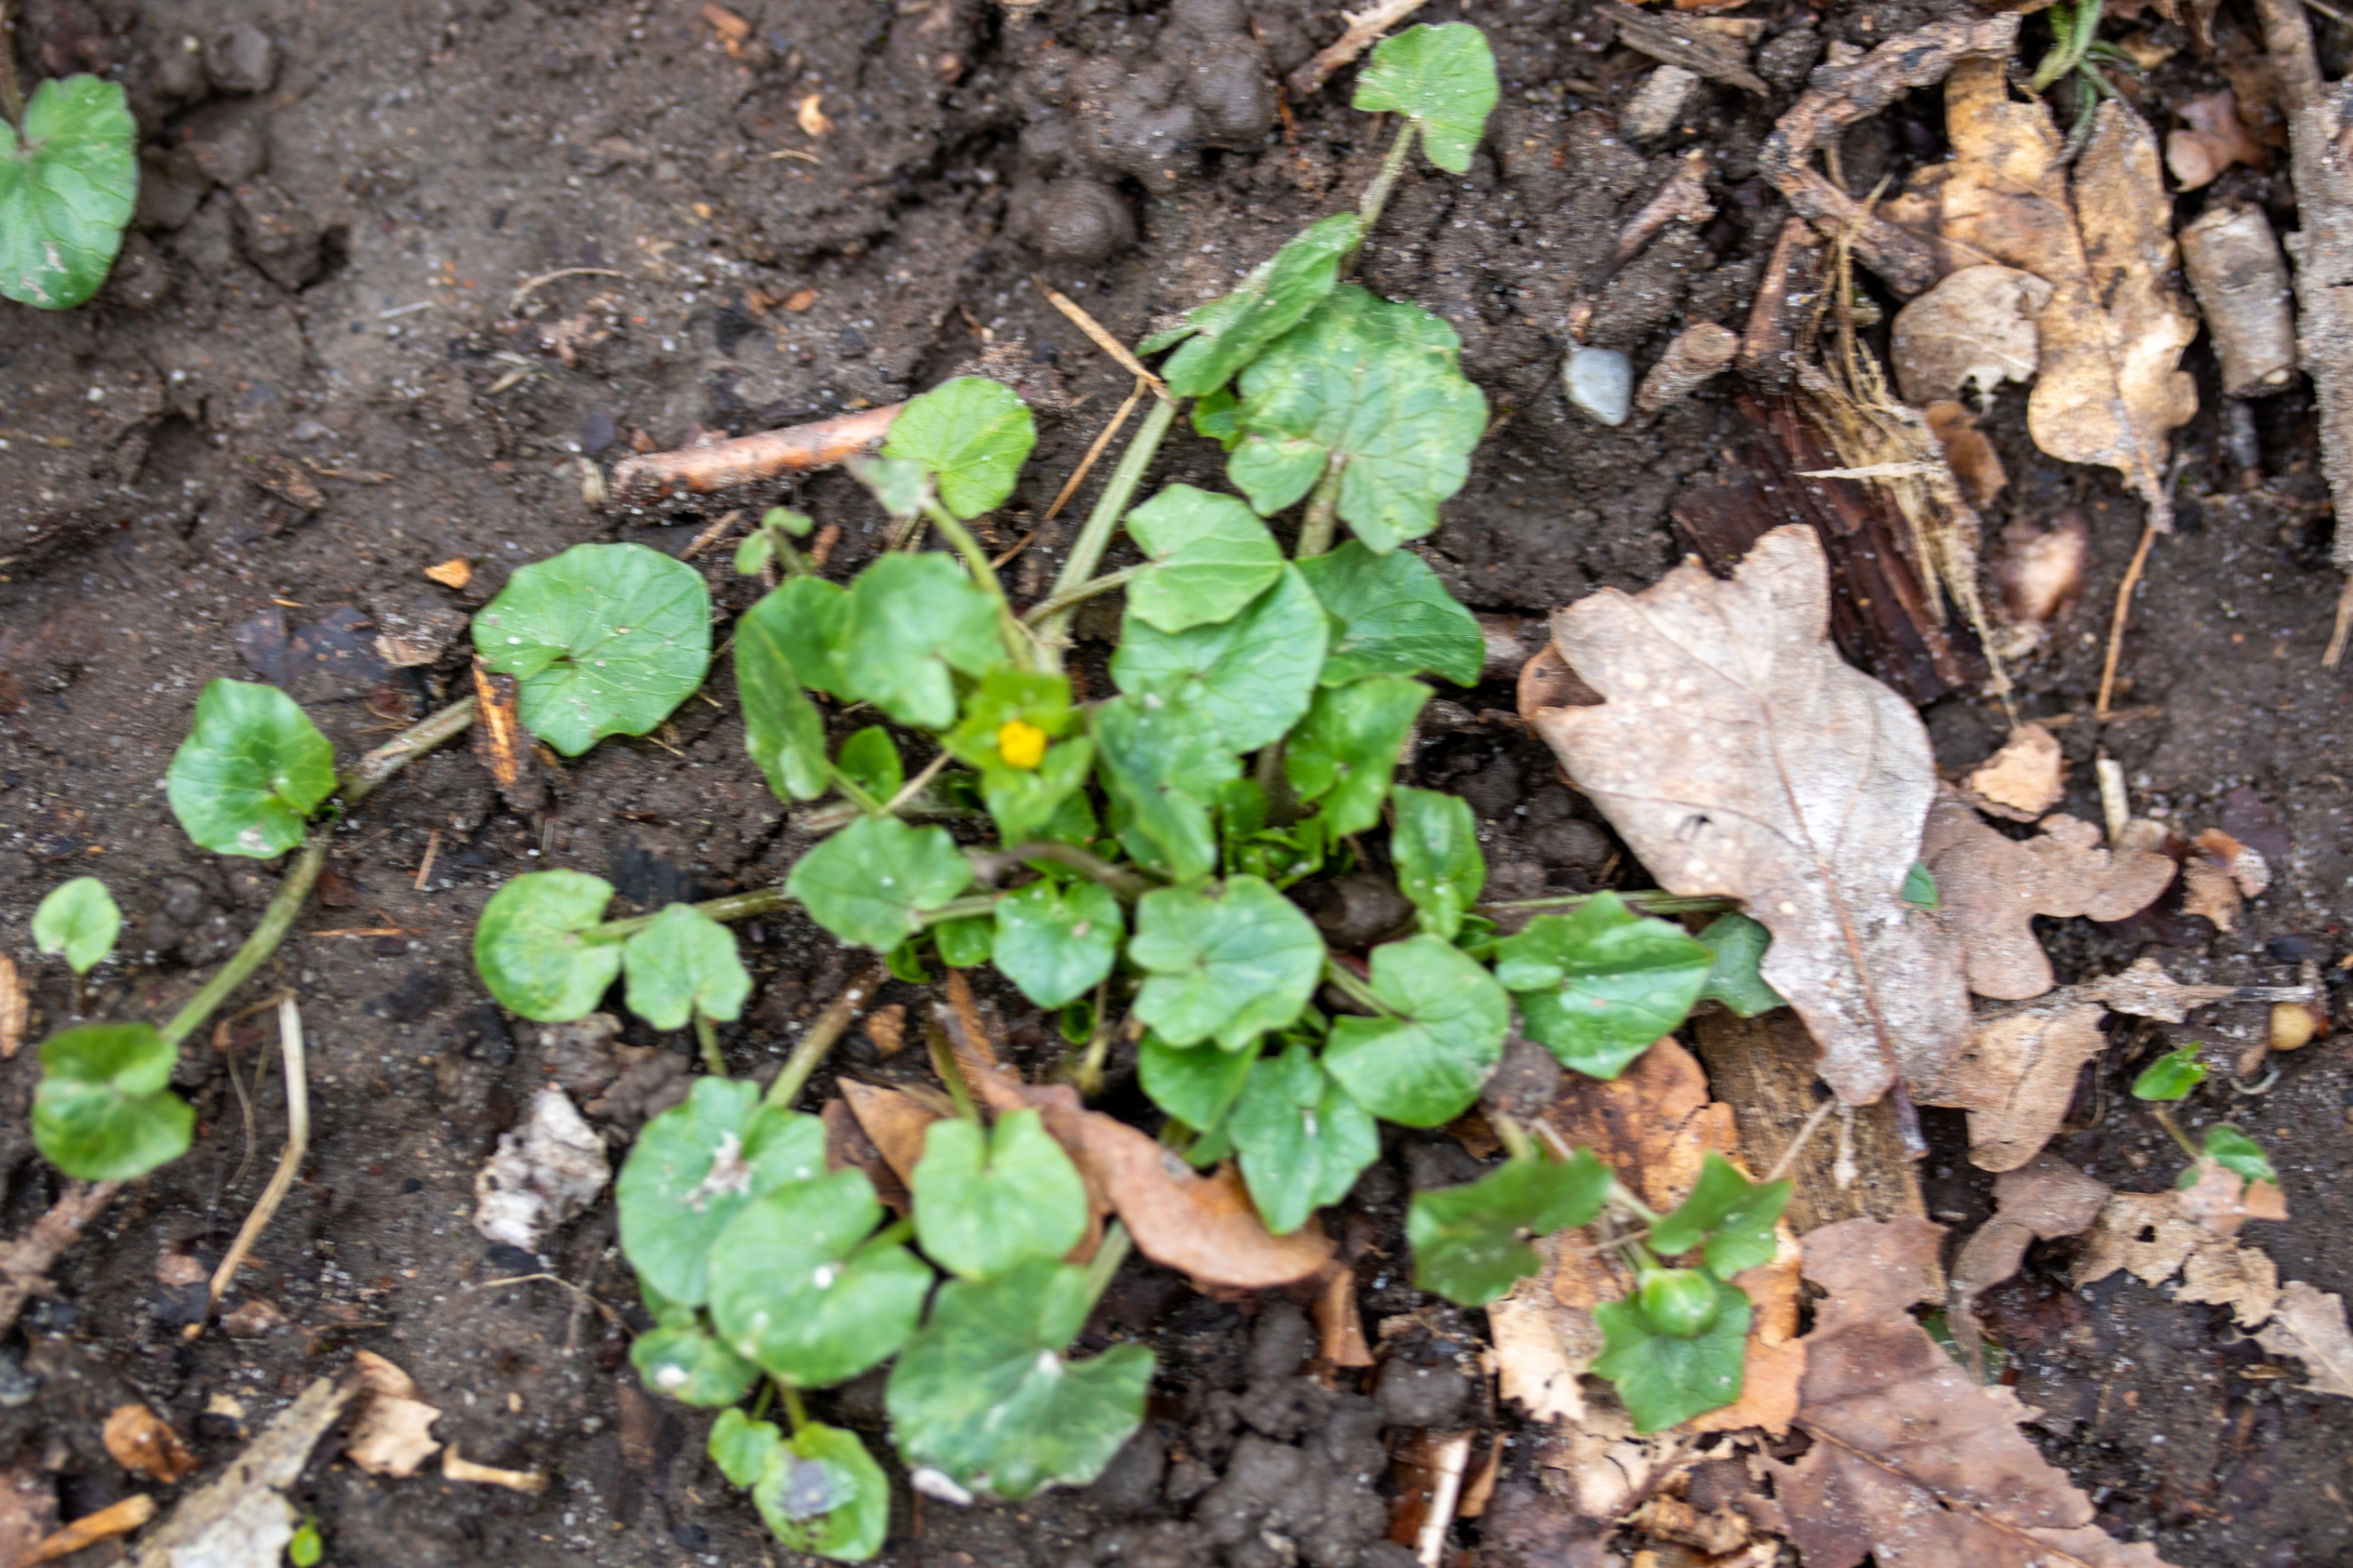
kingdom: Plantae
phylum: Tracheophyta
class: Magnoliopsida
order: Ranunculales
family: Ranunculaceae
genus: Ficaria
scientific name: Ficaria verna
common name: Vorterod
